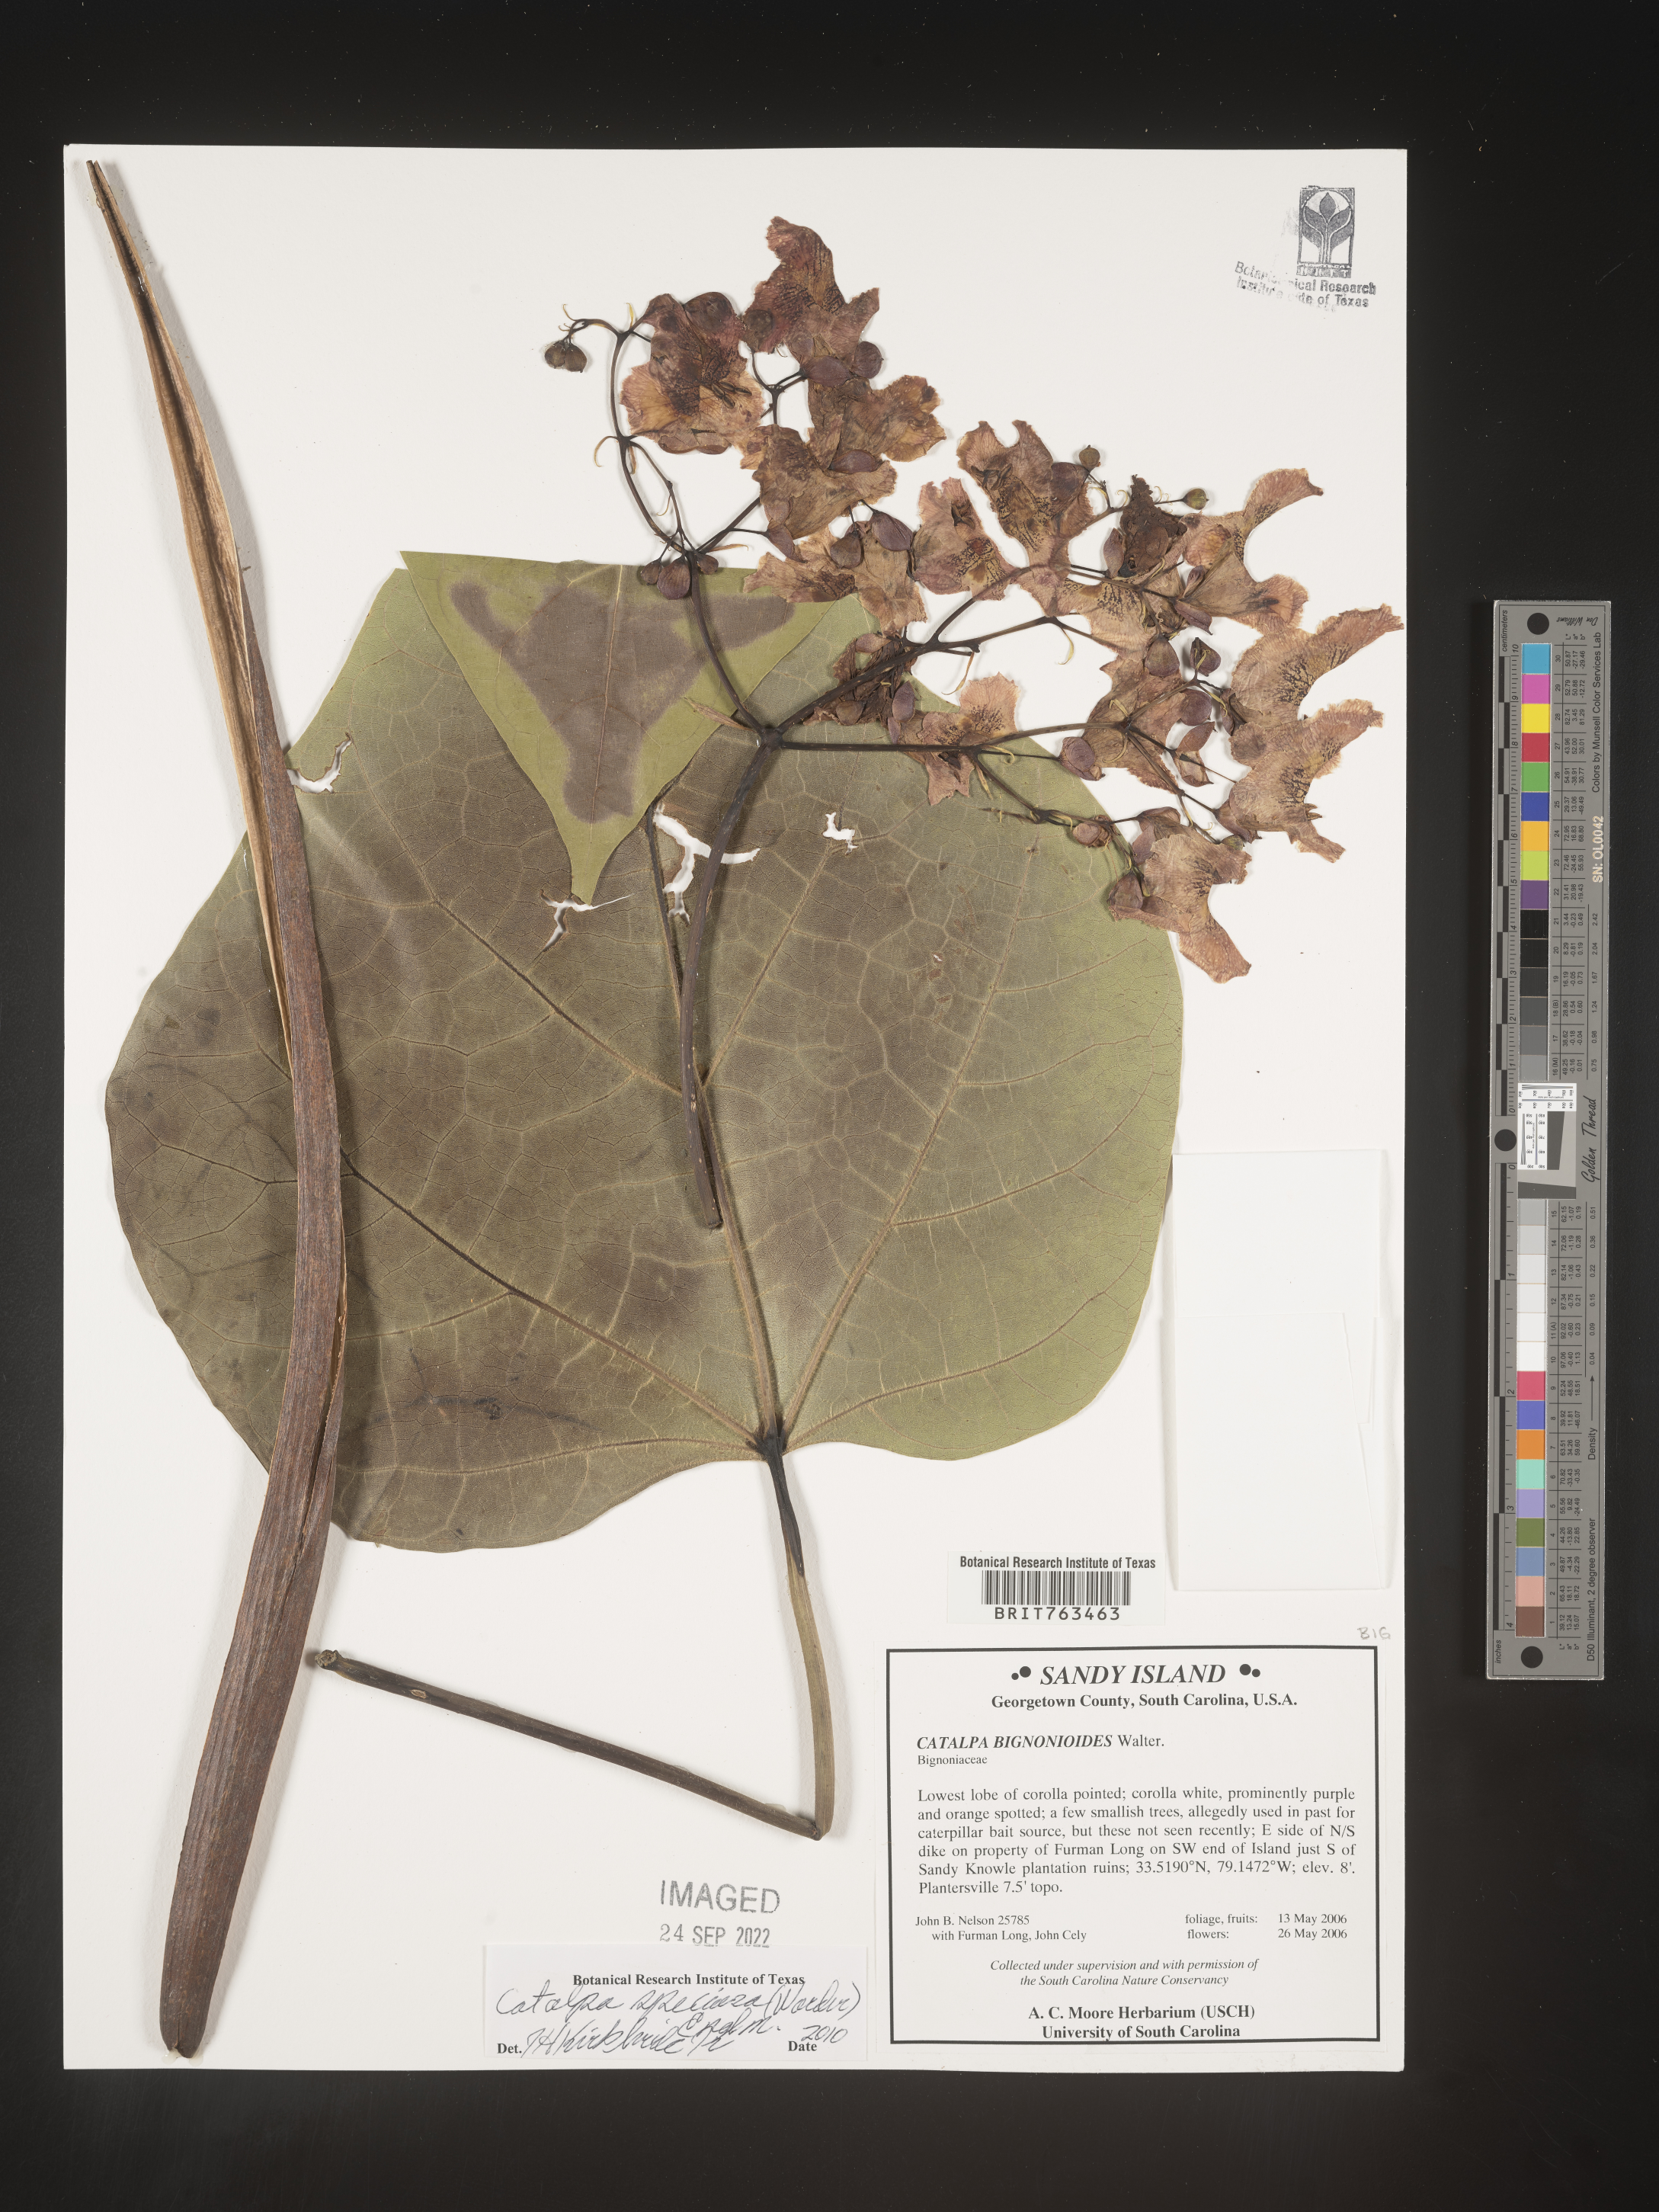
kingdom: Plantae
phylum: Tracheophyta
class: Magnoliopsida
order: Lamiales
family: Bignoniaceae
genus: Catalpa
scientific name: Catalpa speciosa
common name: Northern catalpa
